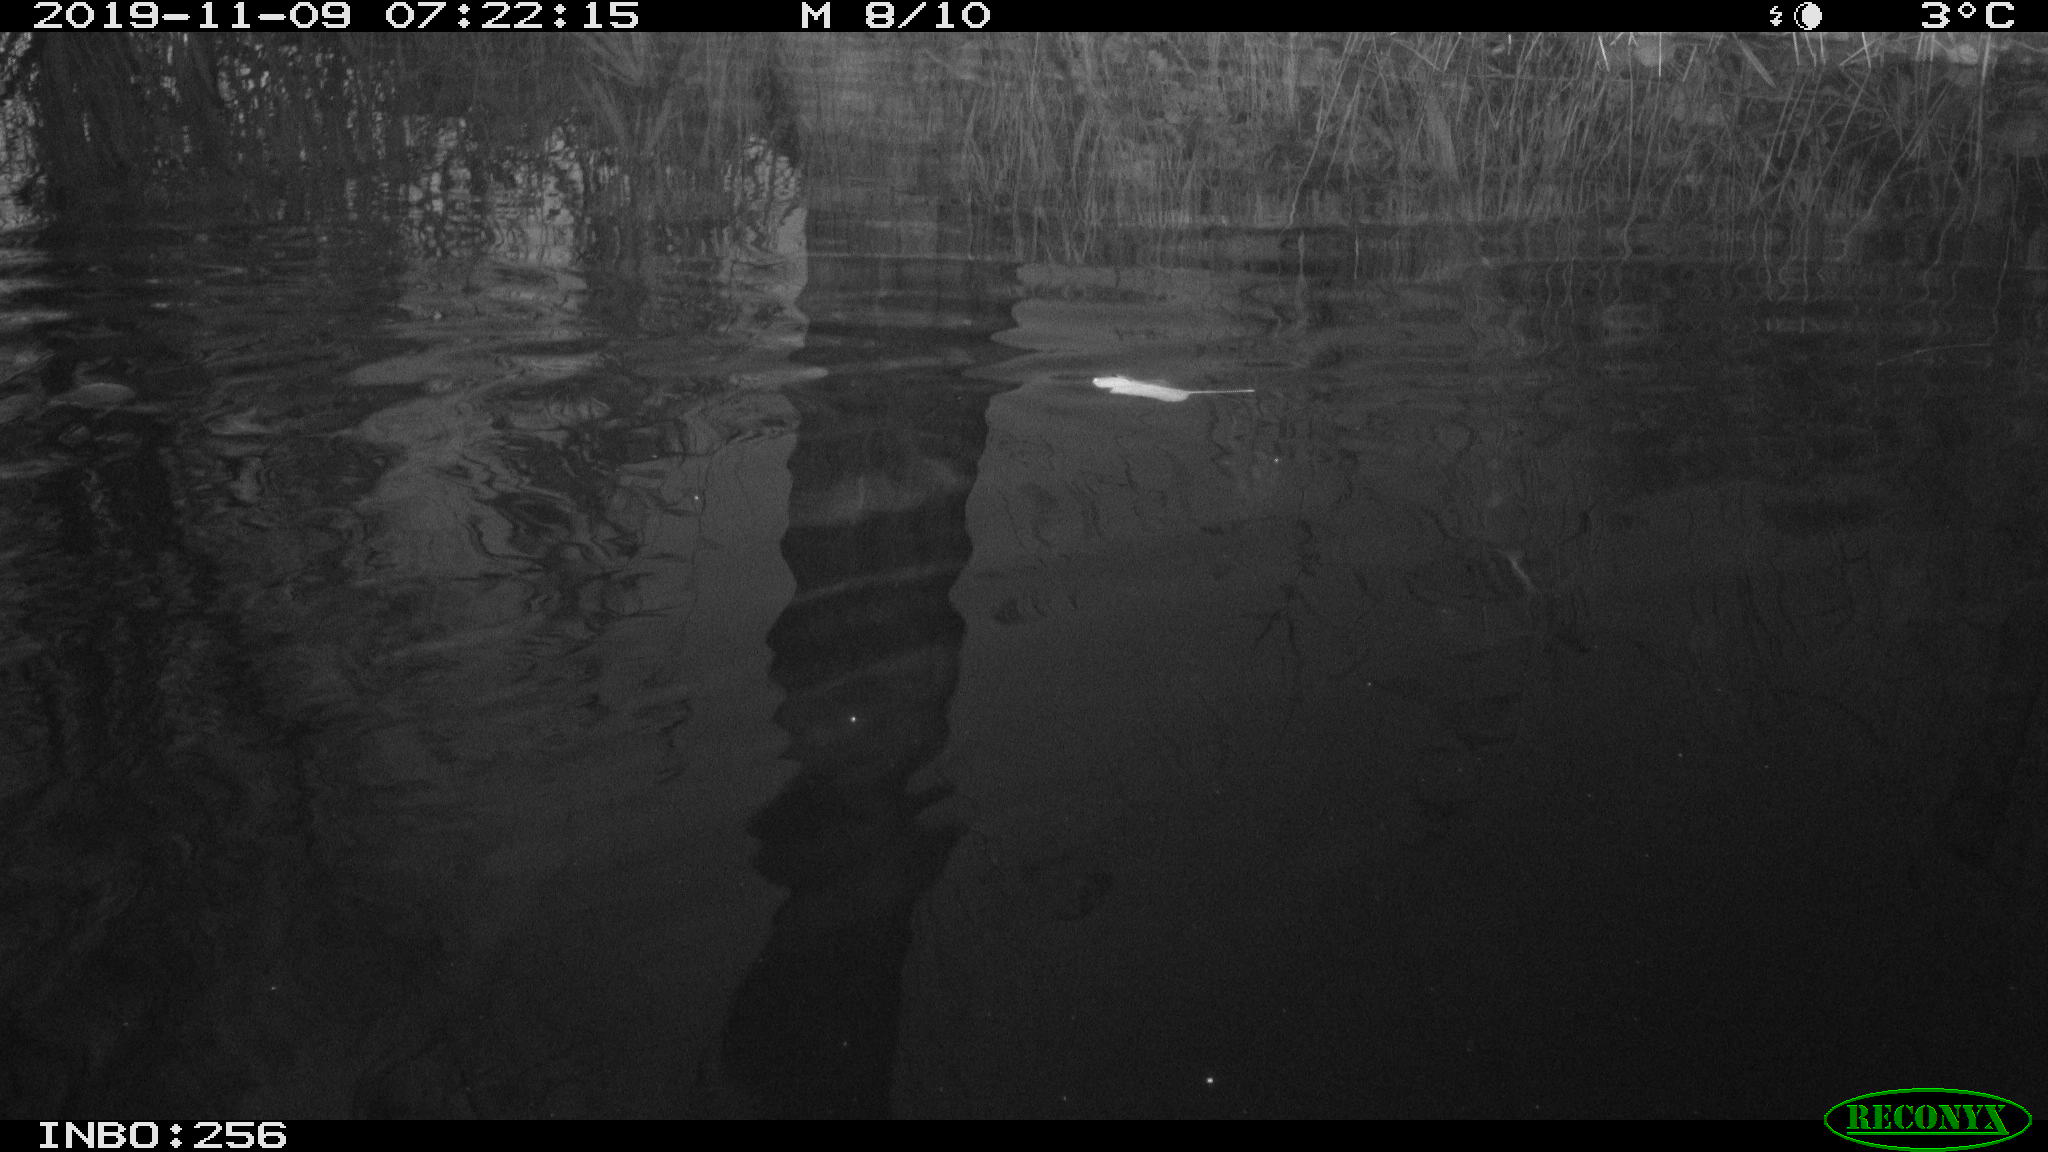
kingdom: Animalia
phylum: Chordata
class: Aves
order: Gruiformes
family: Rallidae
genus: Gallinula
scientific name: Gallinula chloropus
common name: Common moorhen
